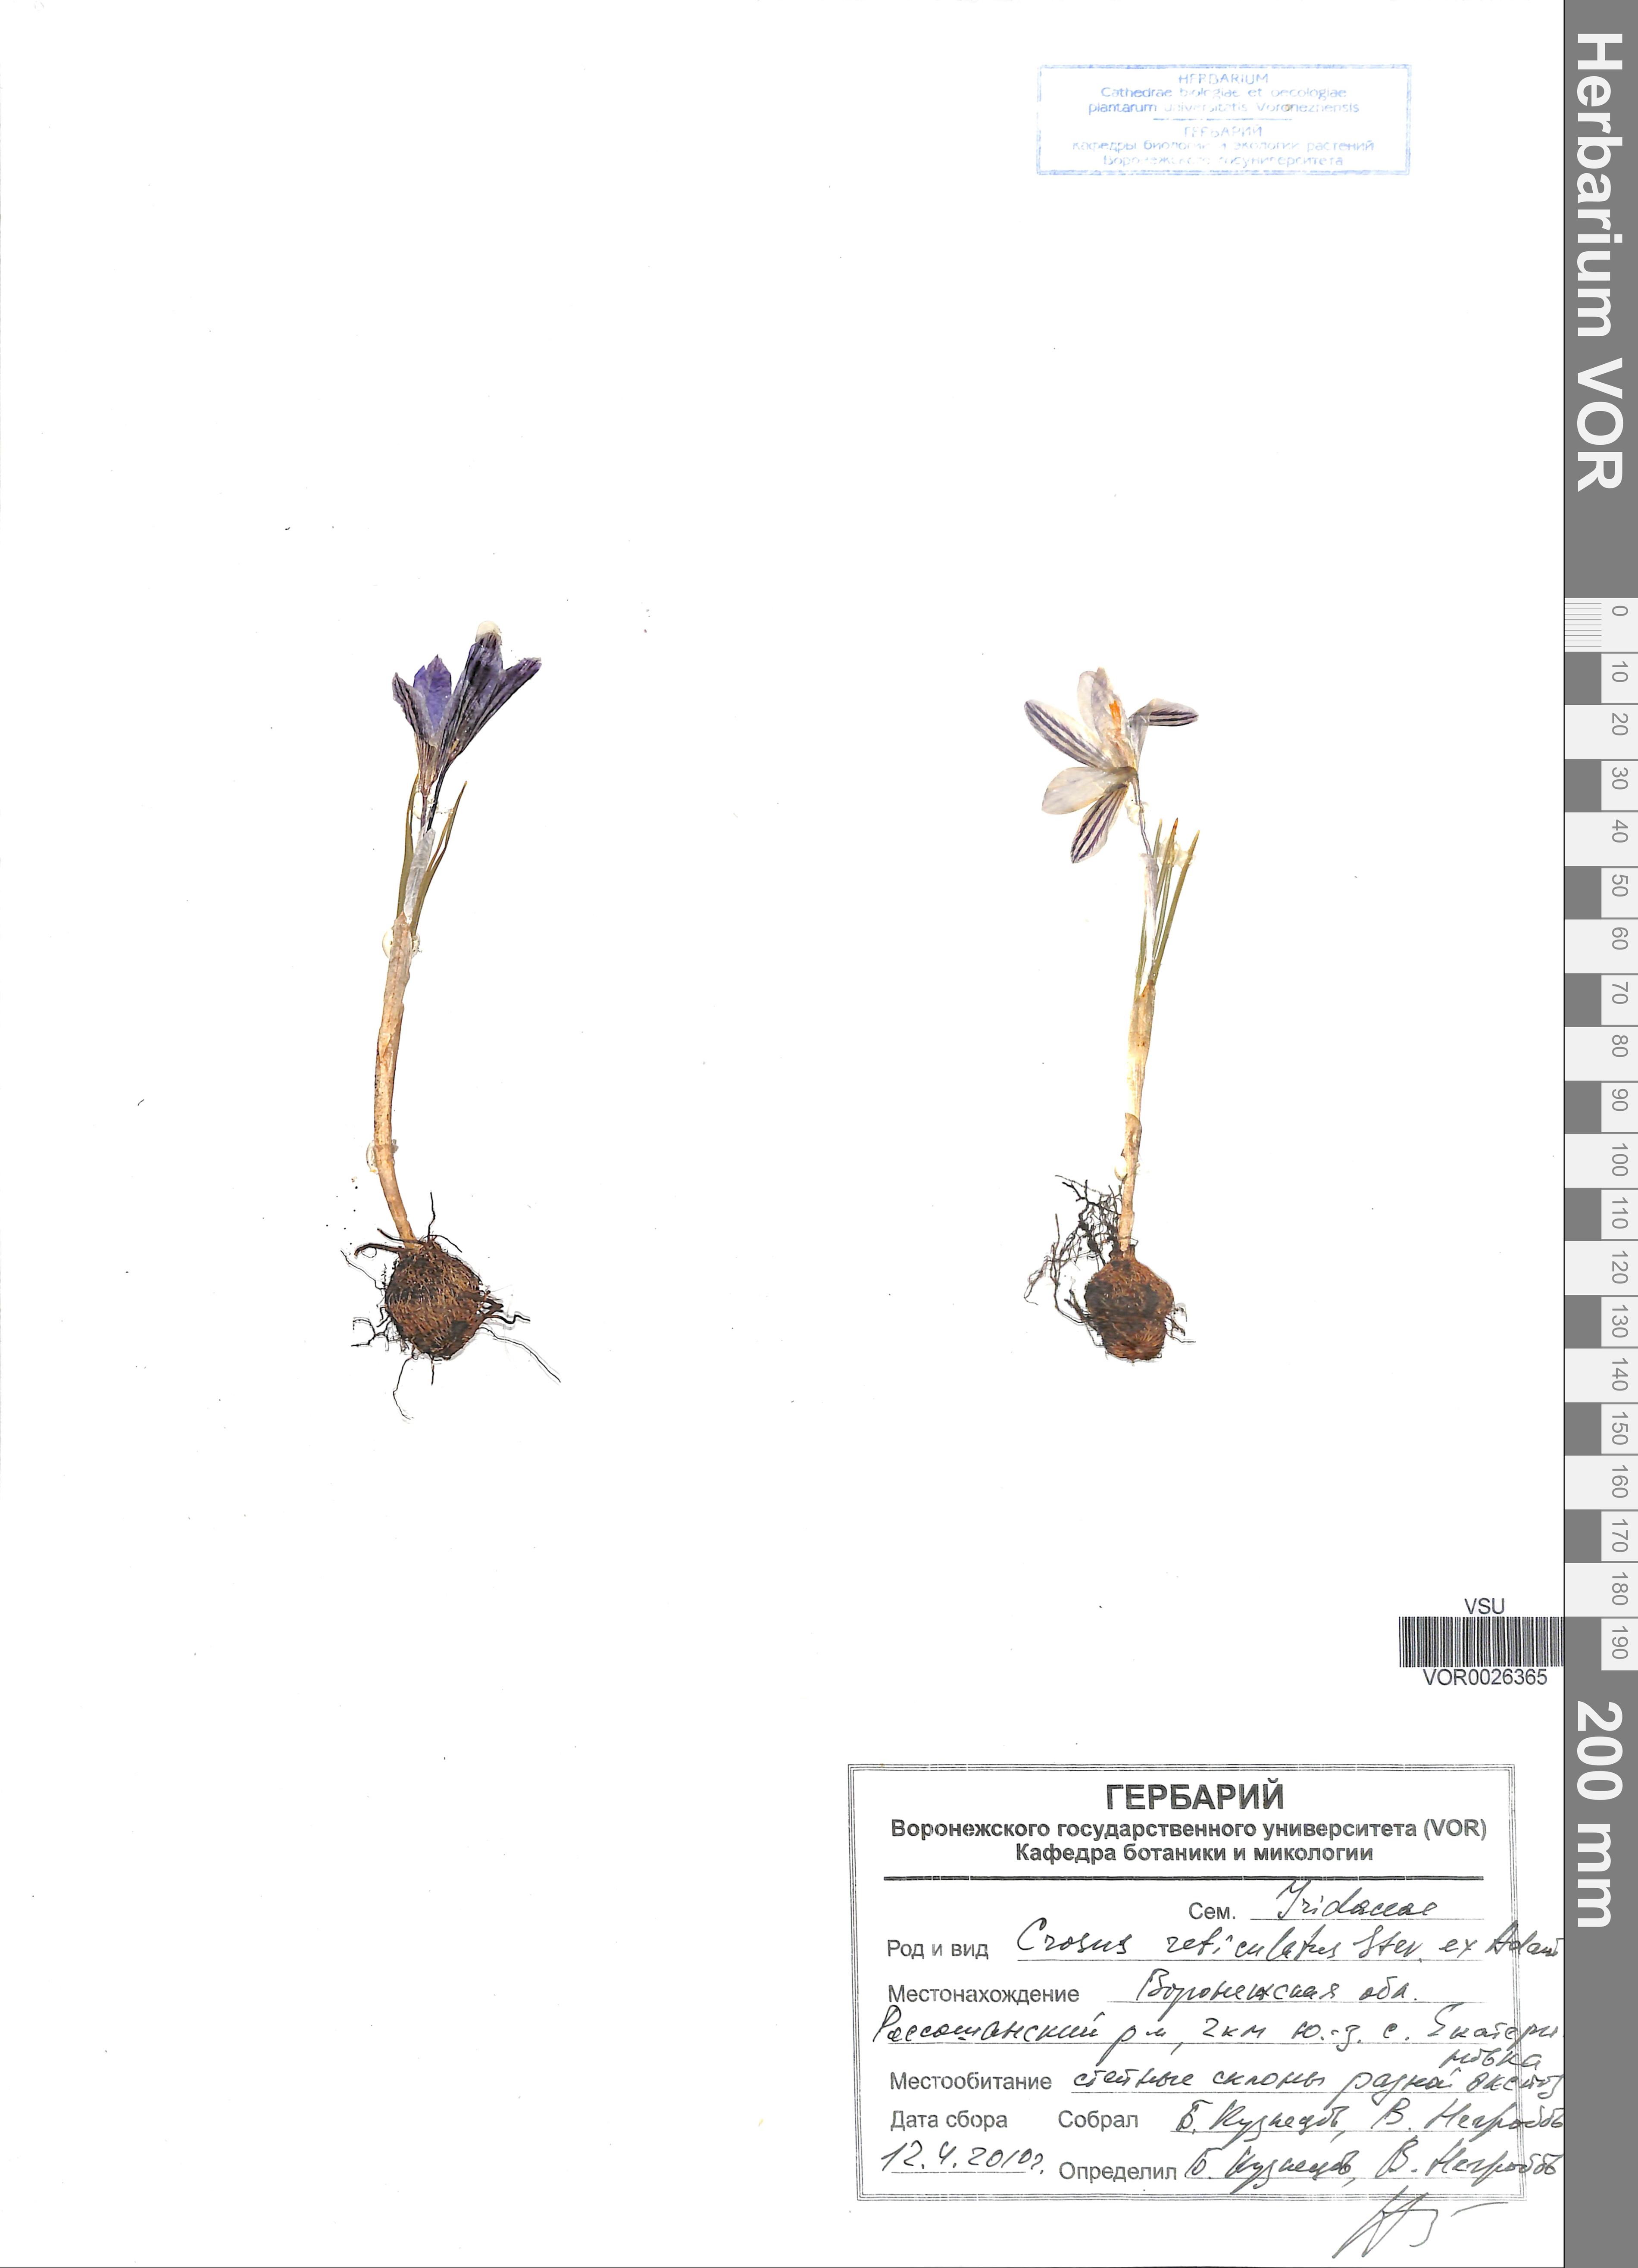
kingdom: Plantae
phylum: Tracheophyta
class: Liliopsida
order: Asparagales
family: Iridaceae
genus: Crocus
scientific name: Crocus reticulatus
